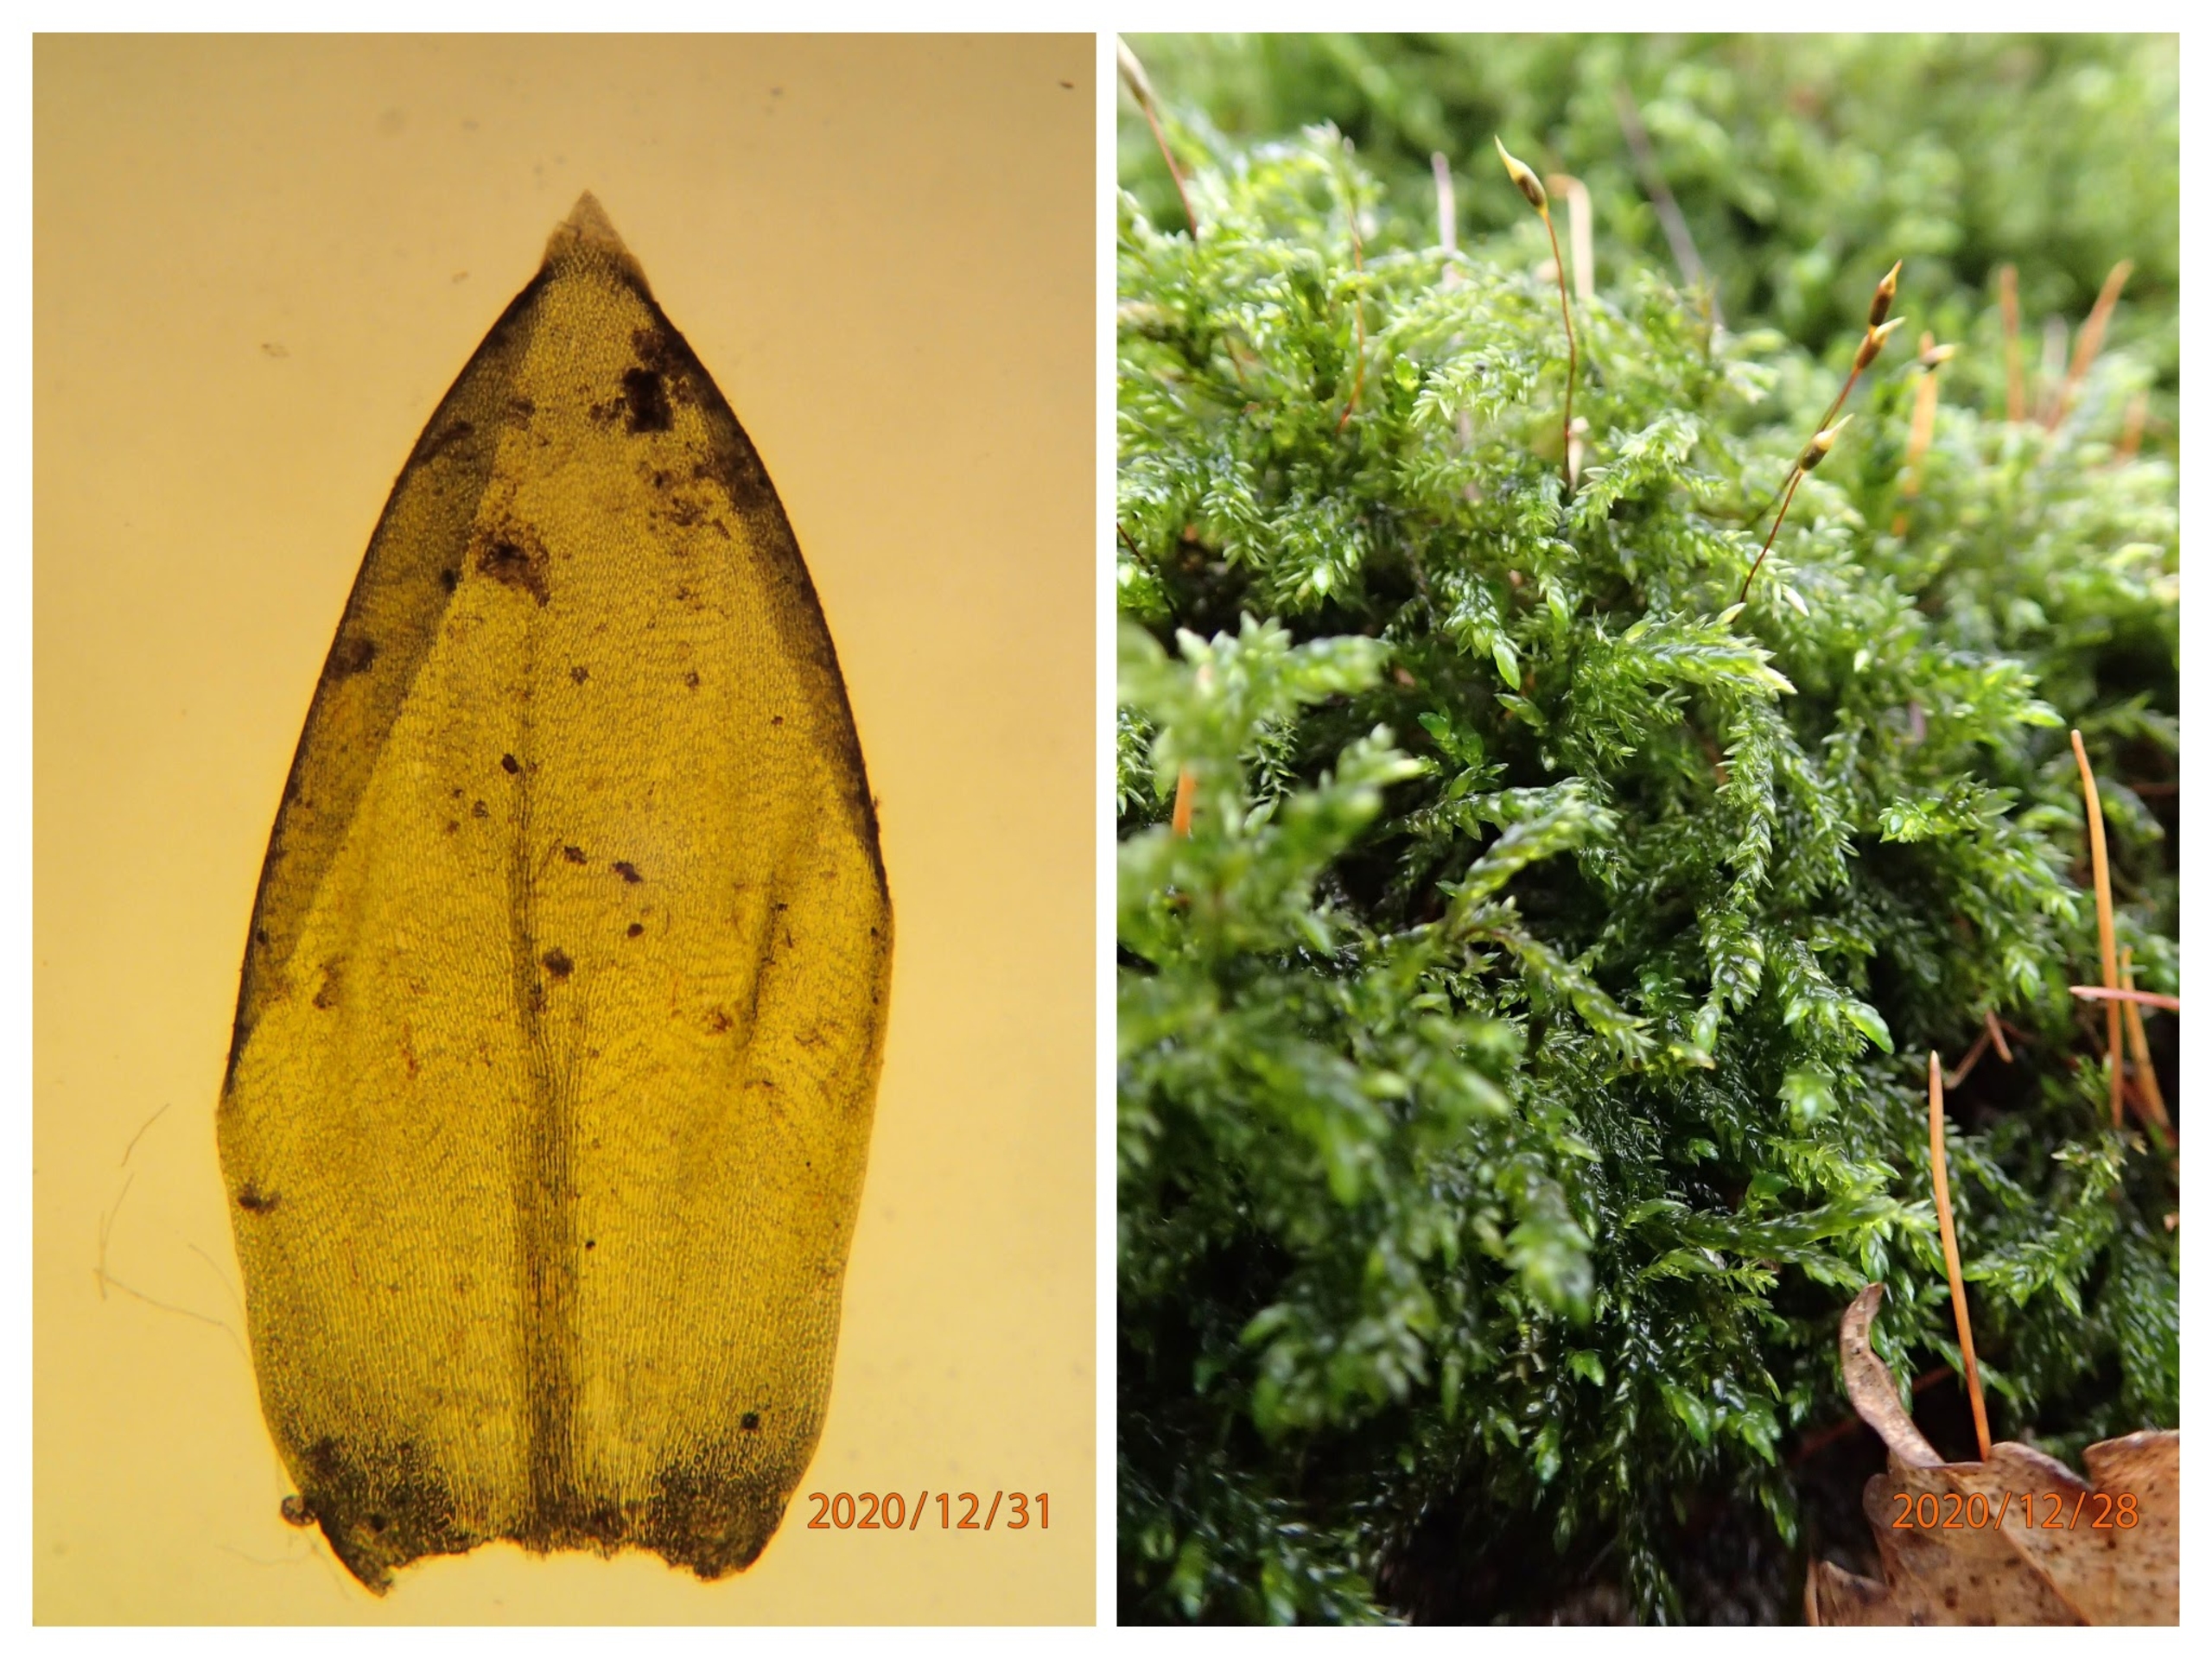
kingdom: Plantae
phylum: Bryophyta
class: Bryopsida
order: Hypnales
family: Lembophyllaceae
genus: Isothecium
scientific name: Isothecium alopecuroides
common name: Stor stammemos
